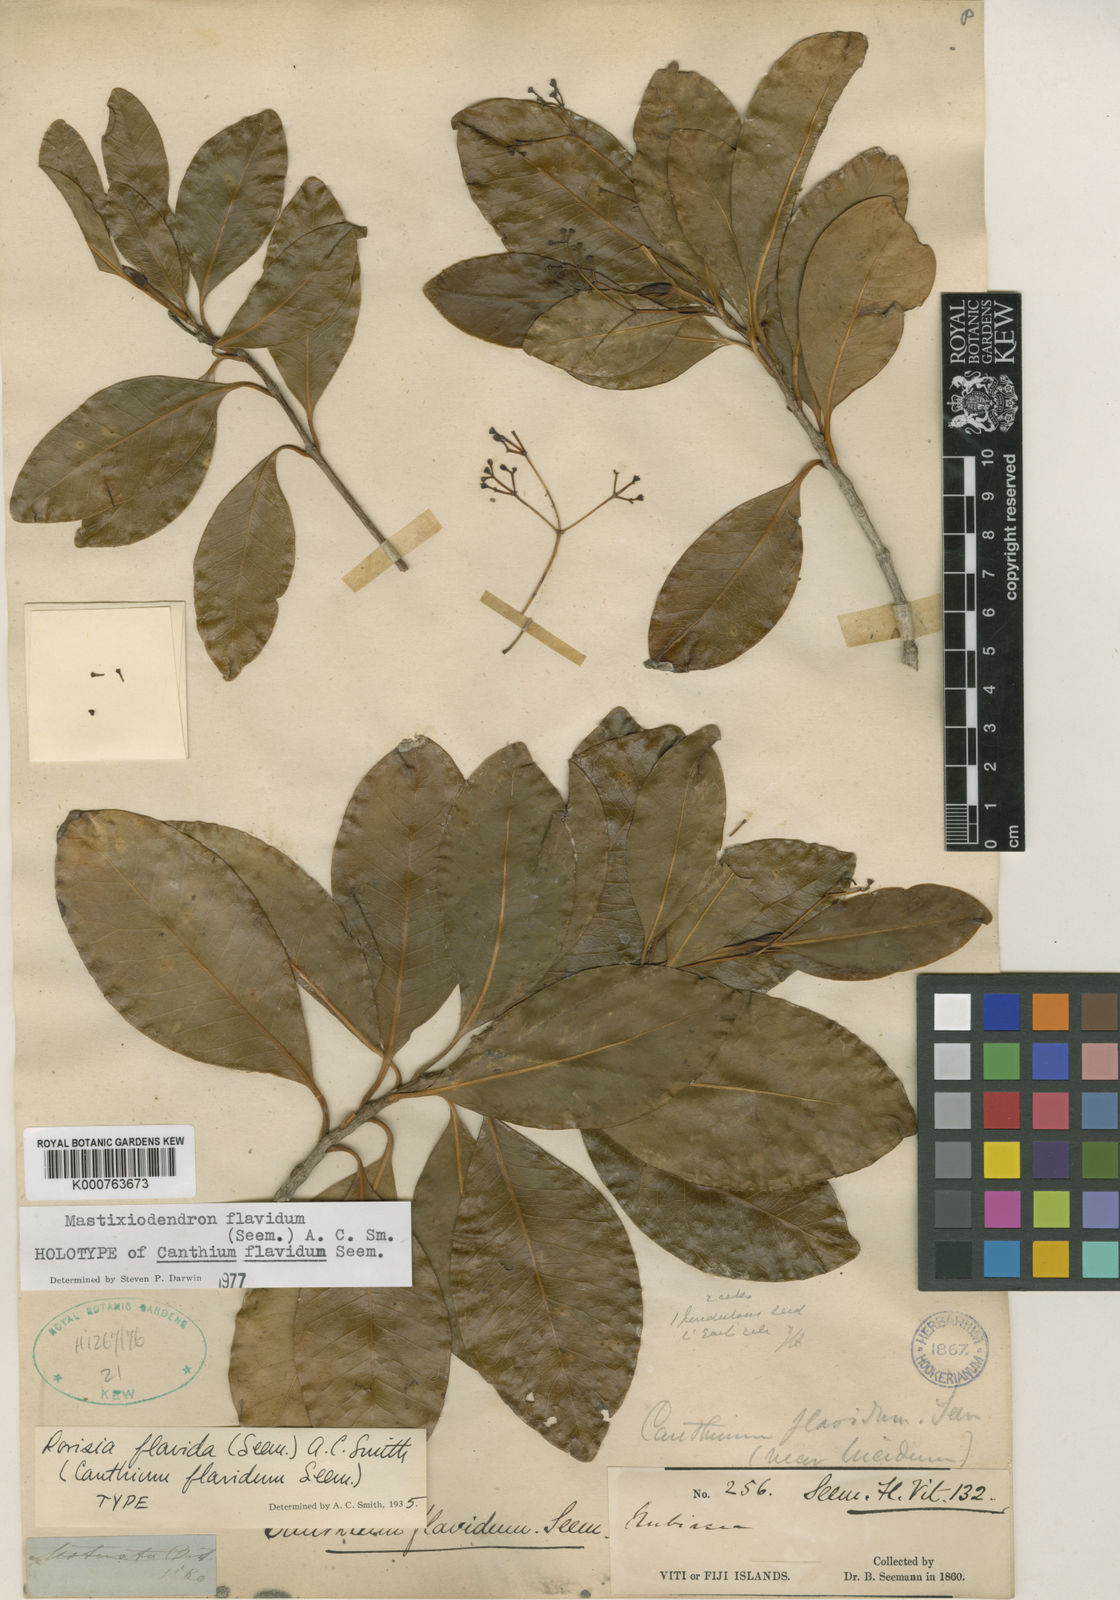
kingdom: Plantae
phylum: Tracheophyta
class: Magnoliopsida
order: Gentianales
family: Rubiaceae
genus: Mastixiodendron
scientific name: Mastixiodendron flavidum
